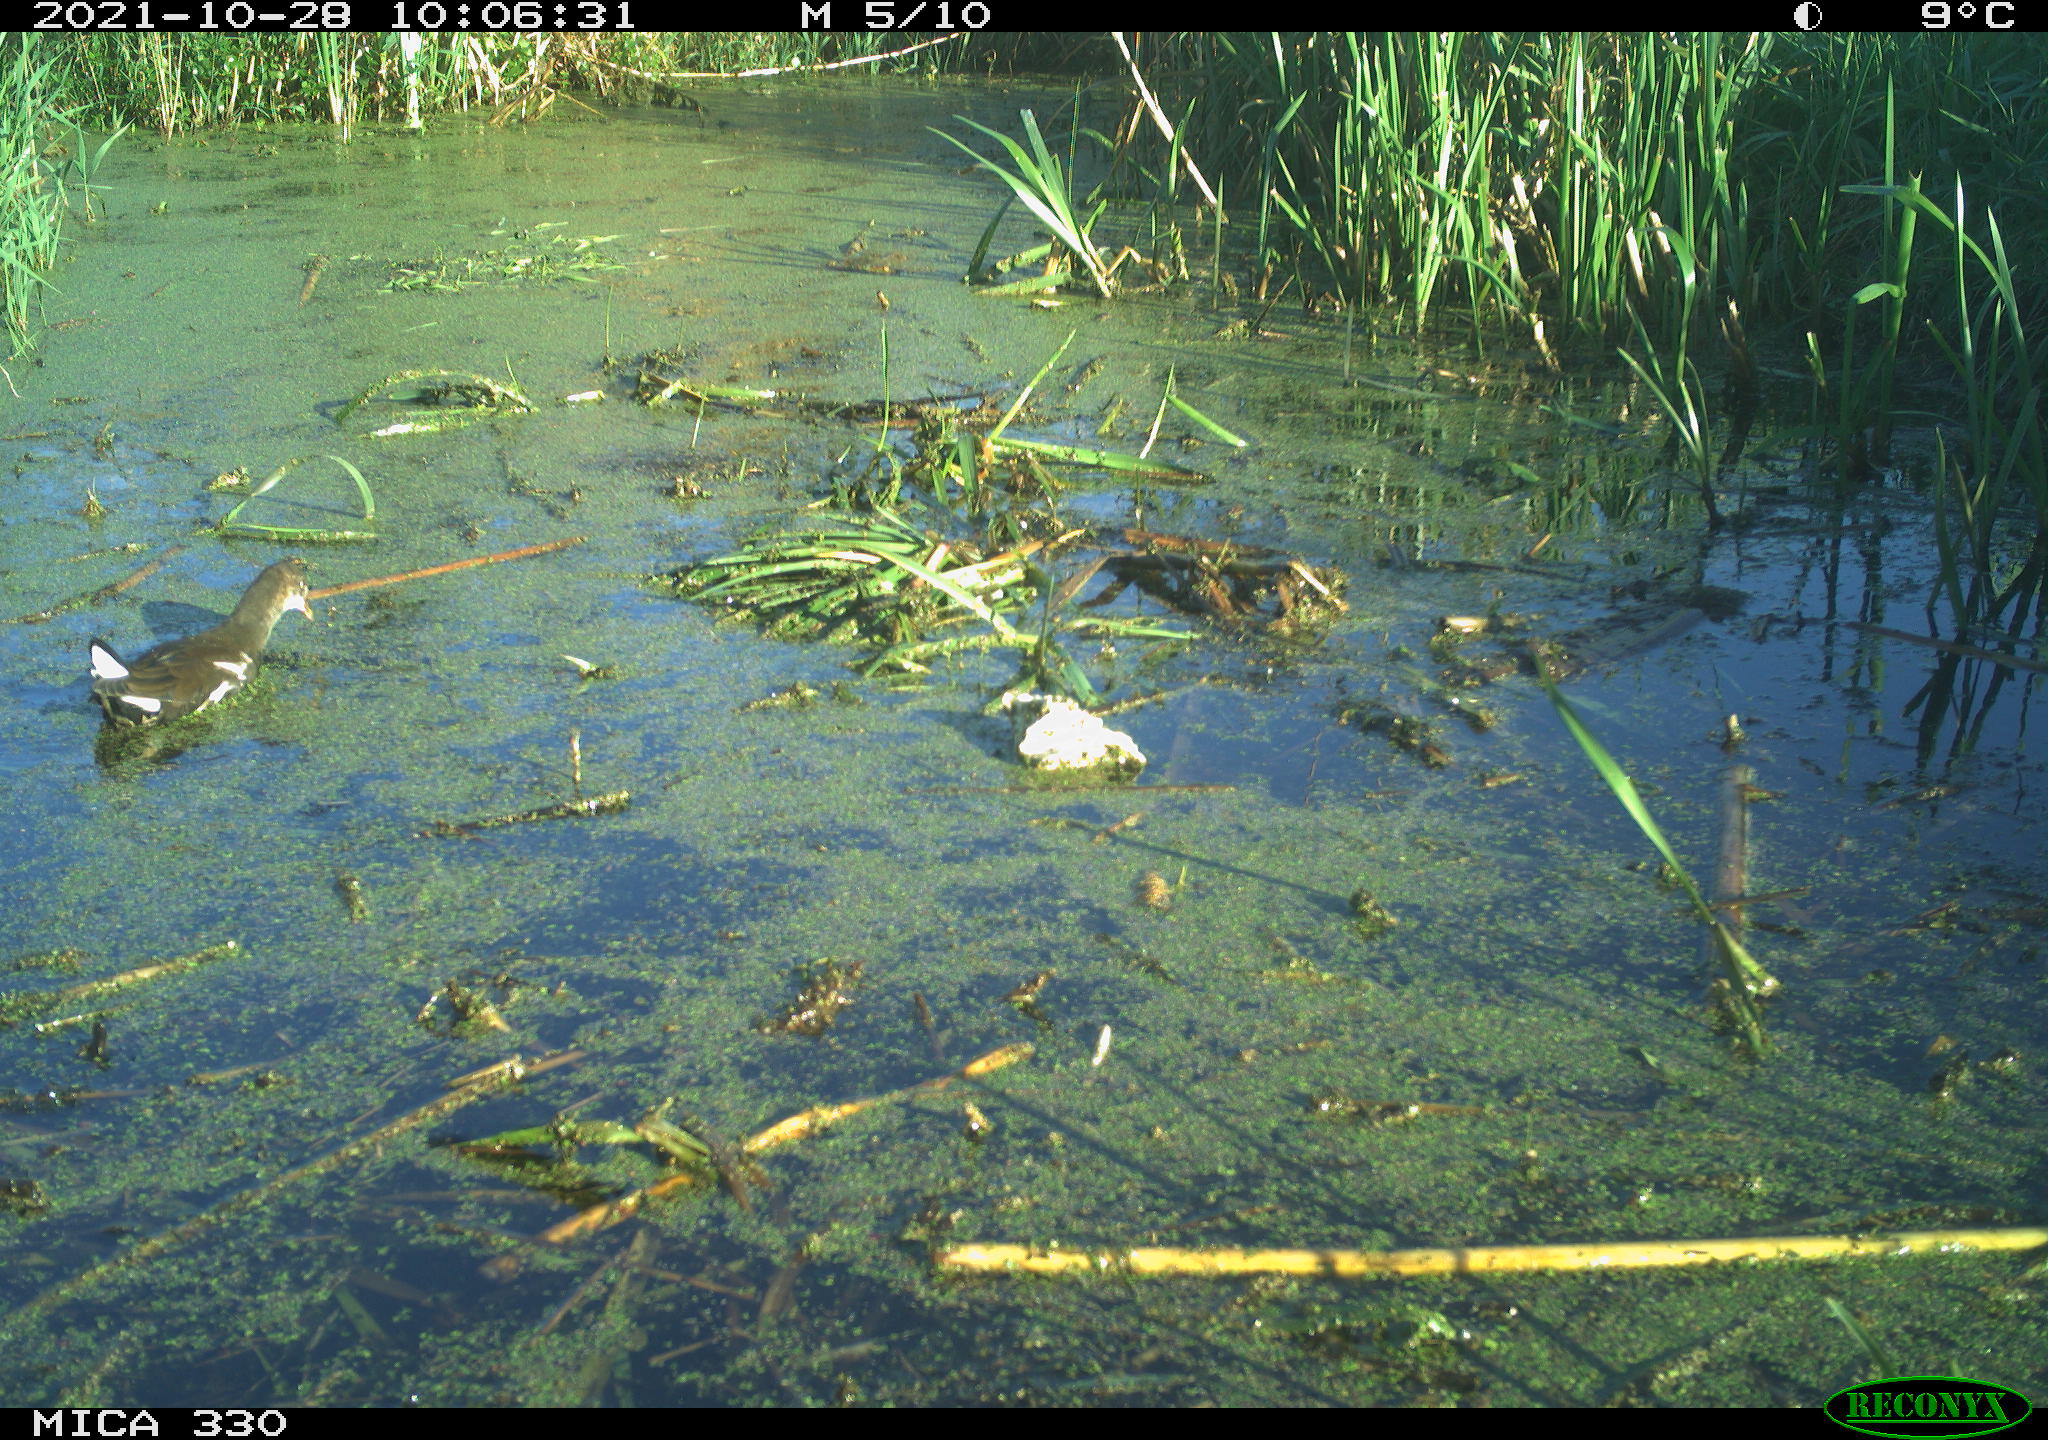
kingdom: Animalia
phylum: Chordata
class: Aves
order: Gruiformes
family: Rallidae
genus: Gallinula
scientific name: Gallinula chloropus
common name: Common moorhen
